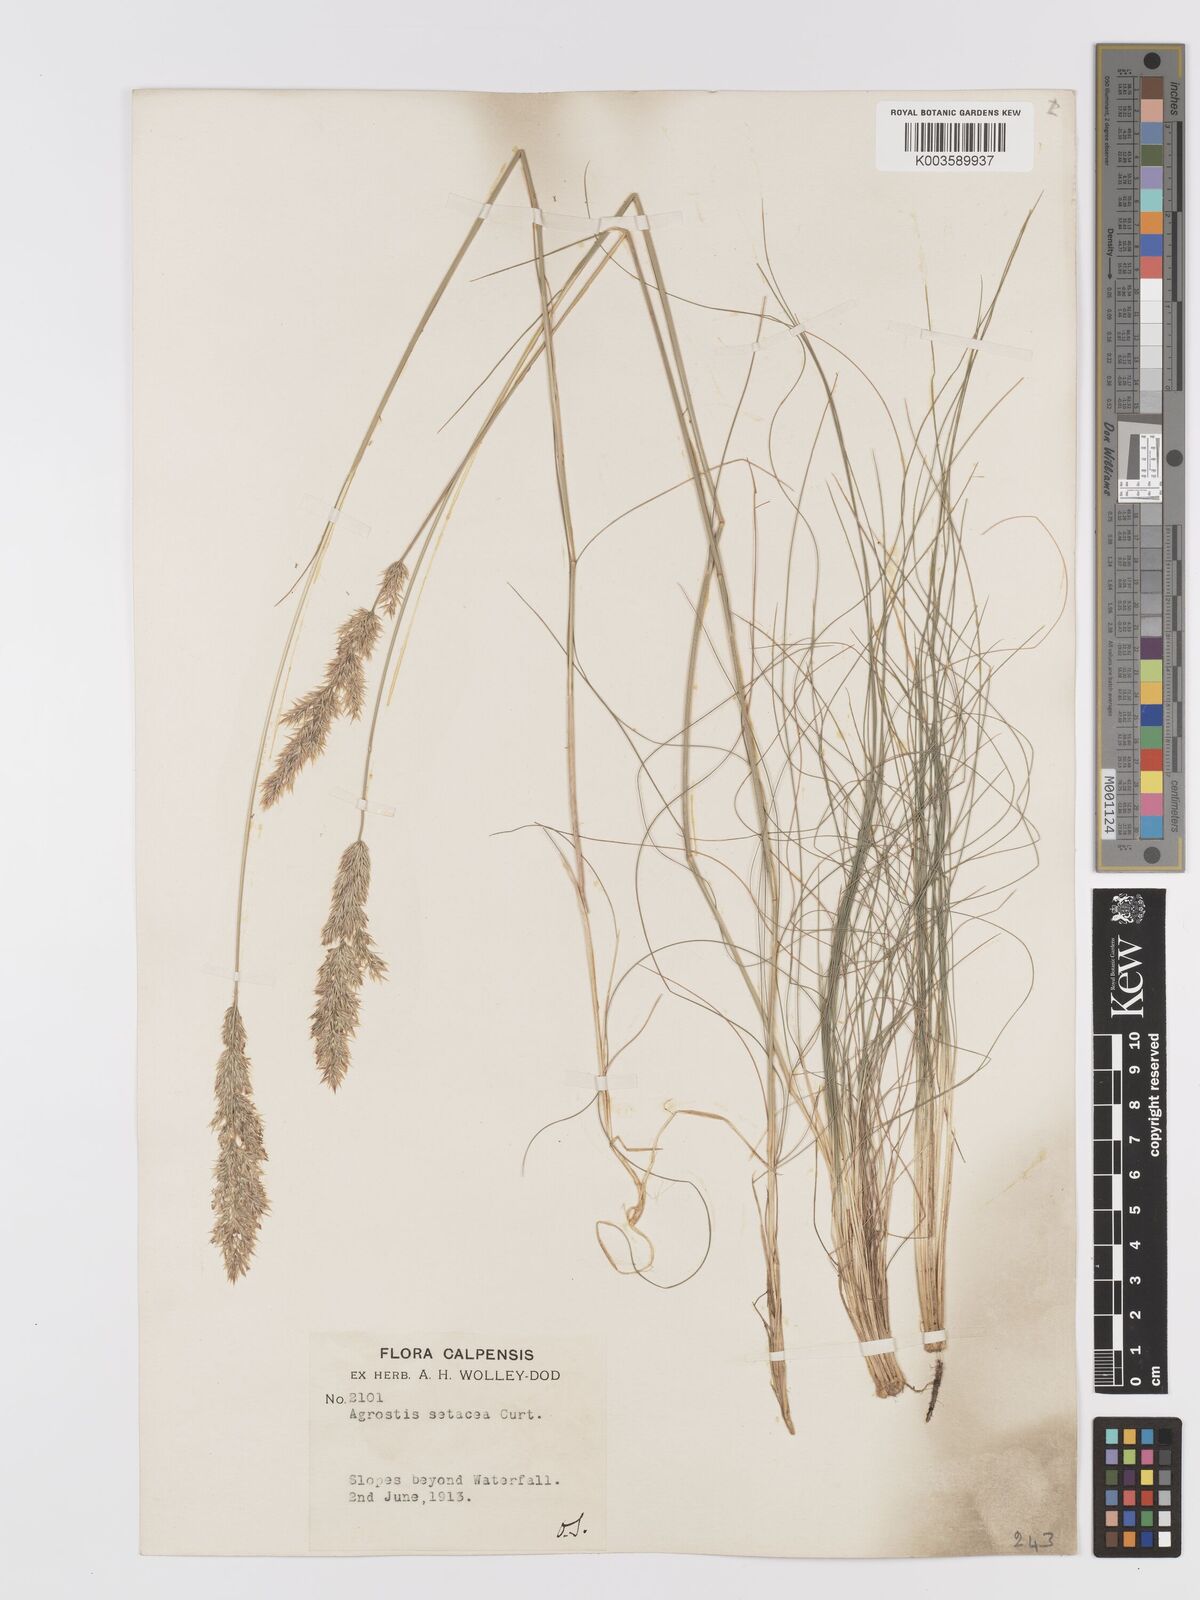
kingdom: Plantae
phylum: Tracheophyta
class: Liliopsida
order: Poales
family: Poaceae
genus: Alpagrostis
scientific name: Alpagrostis setacea
